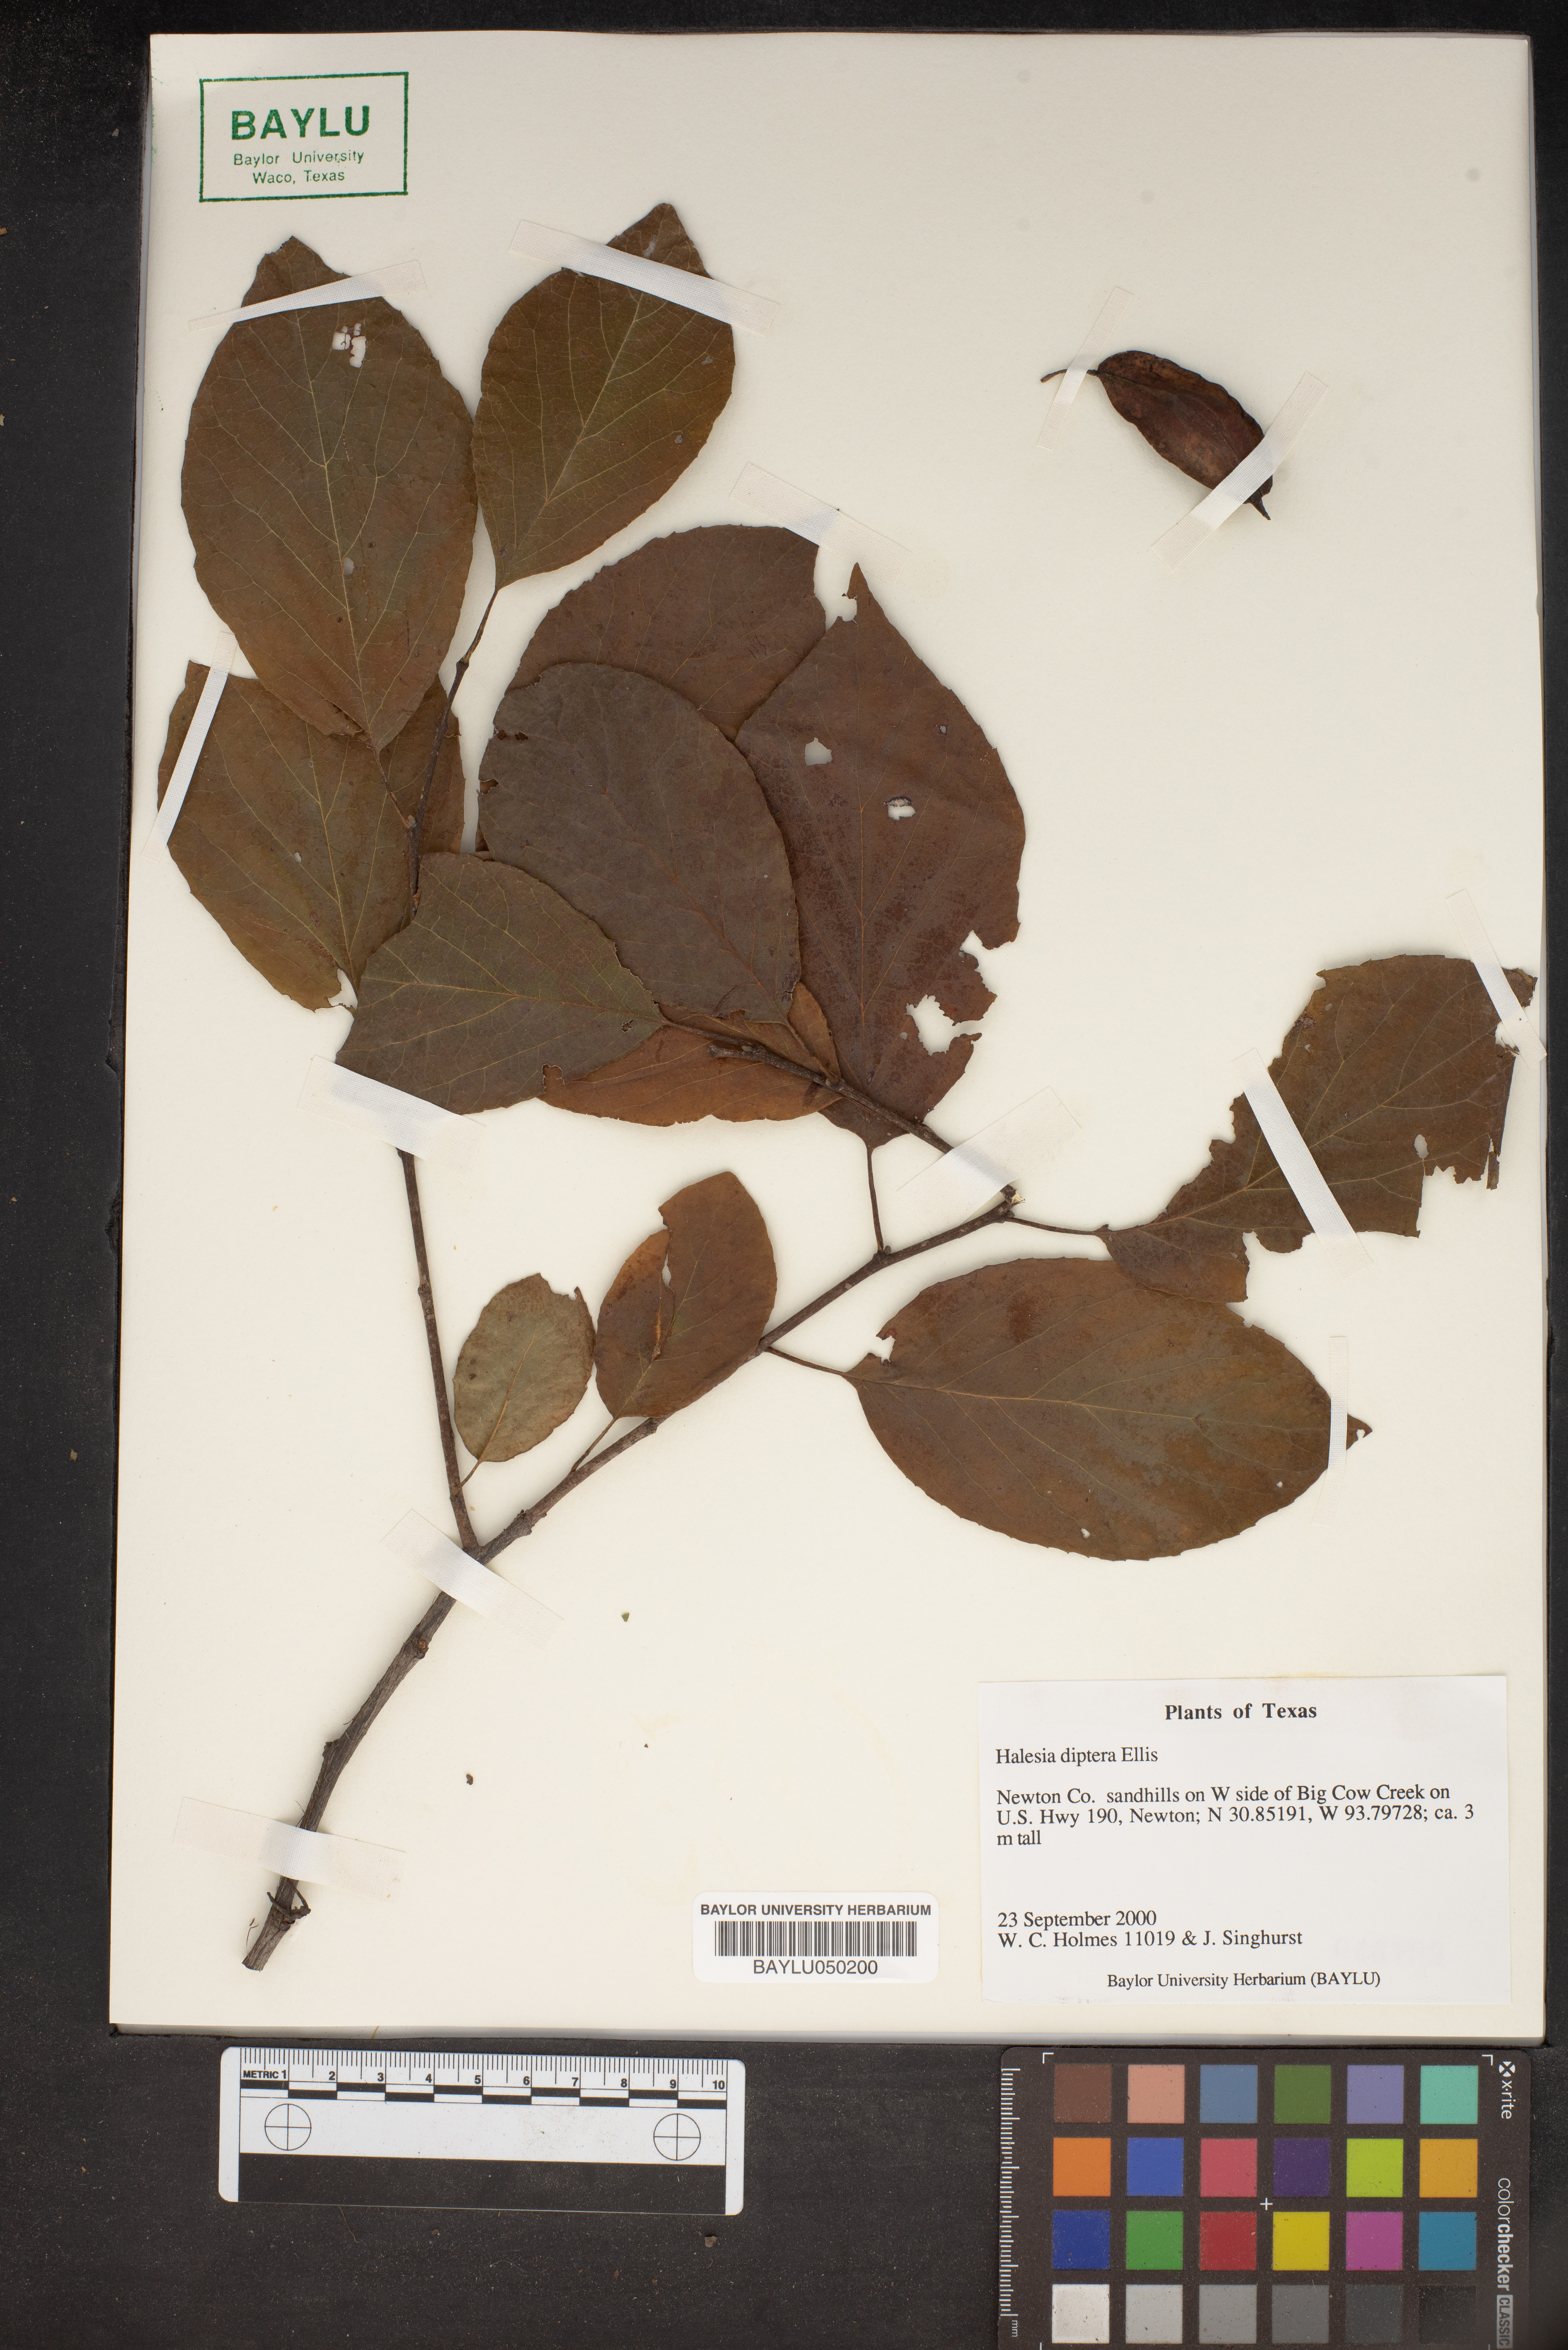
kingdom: Plantae
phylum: Tracheophyta
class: Magnoliopsida
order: Ericales
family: Styracaceae
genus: Halesia
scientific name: Halesia diptera
